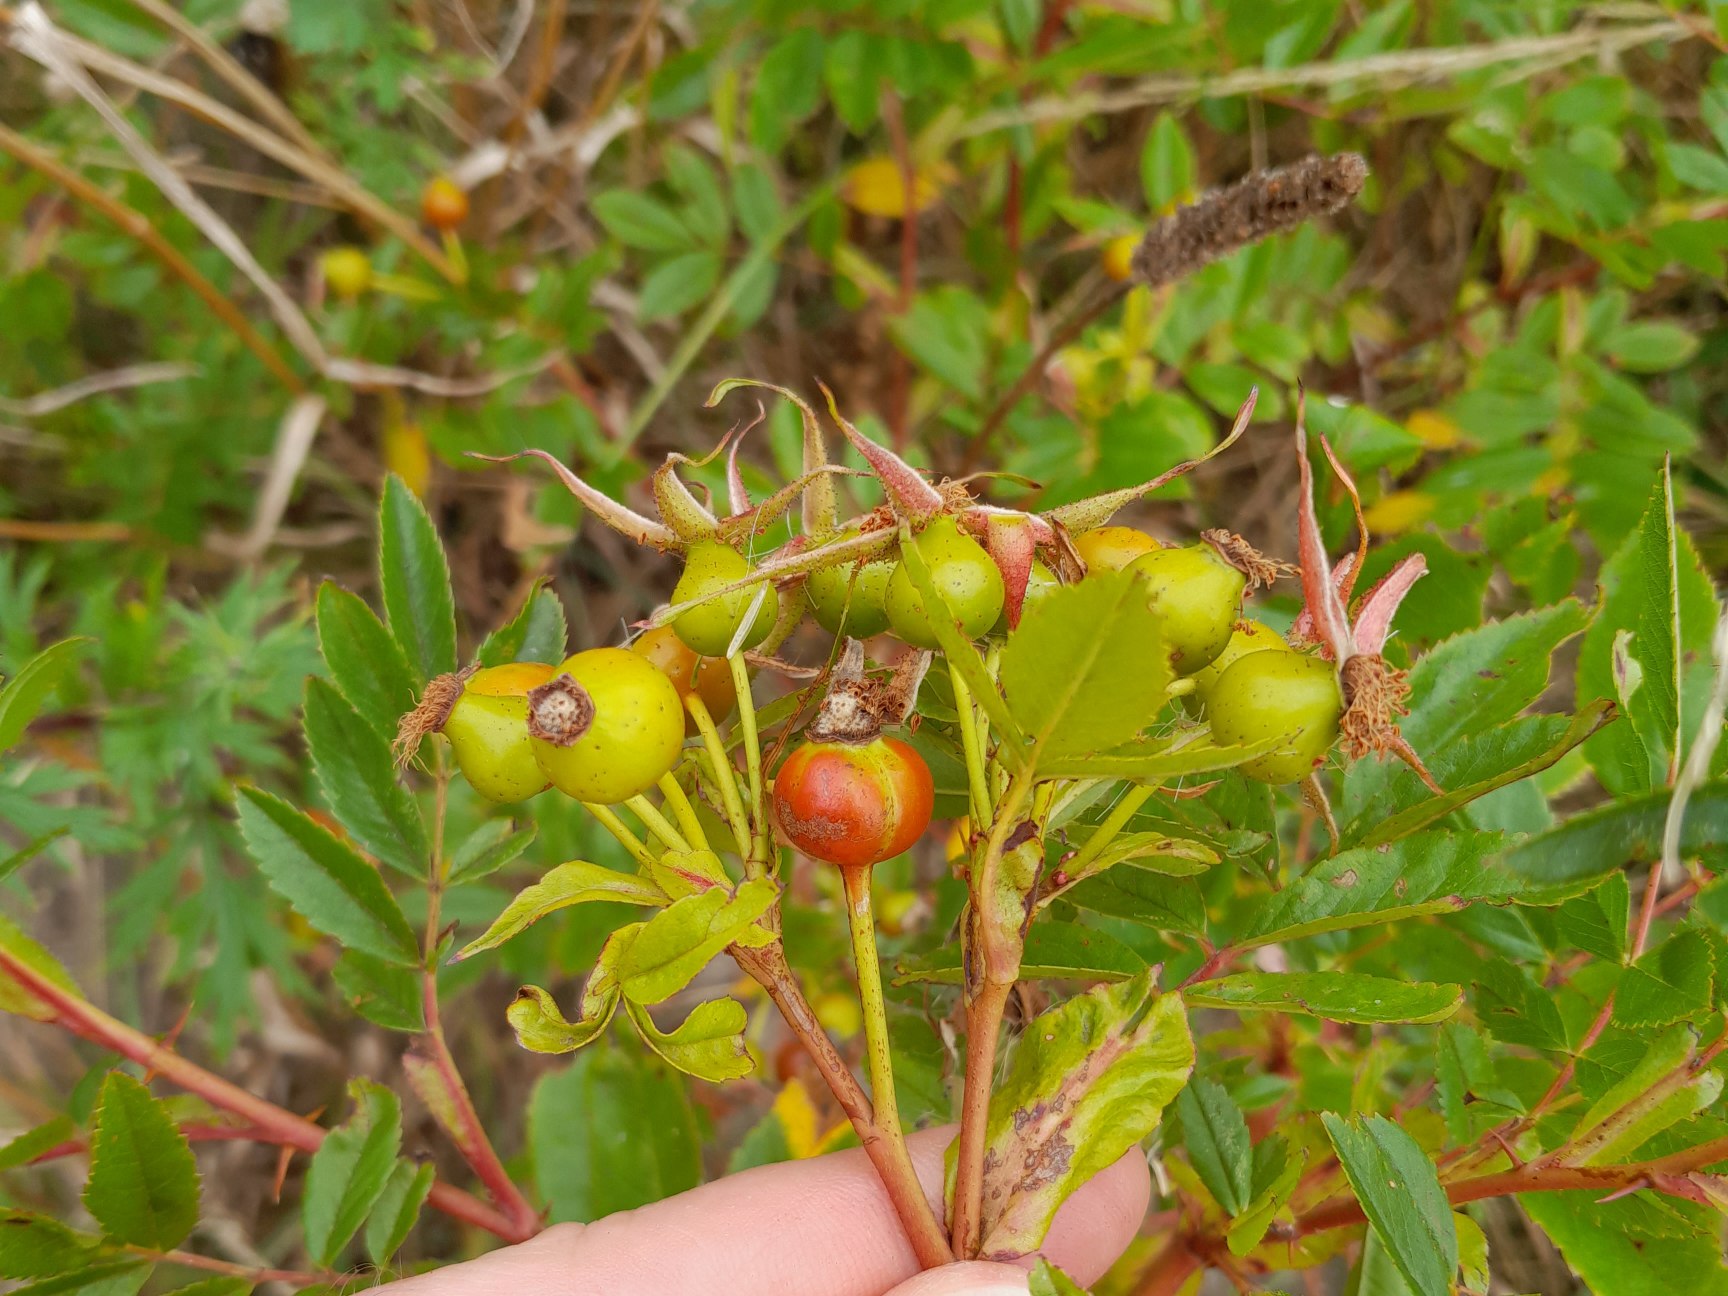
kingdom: Plantae
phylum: Tracheophyta
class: Magnoliopsida
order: Rosales
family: Rosaceae
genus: Rosa
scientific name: Rosa carolina
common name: Glansbladet rose
